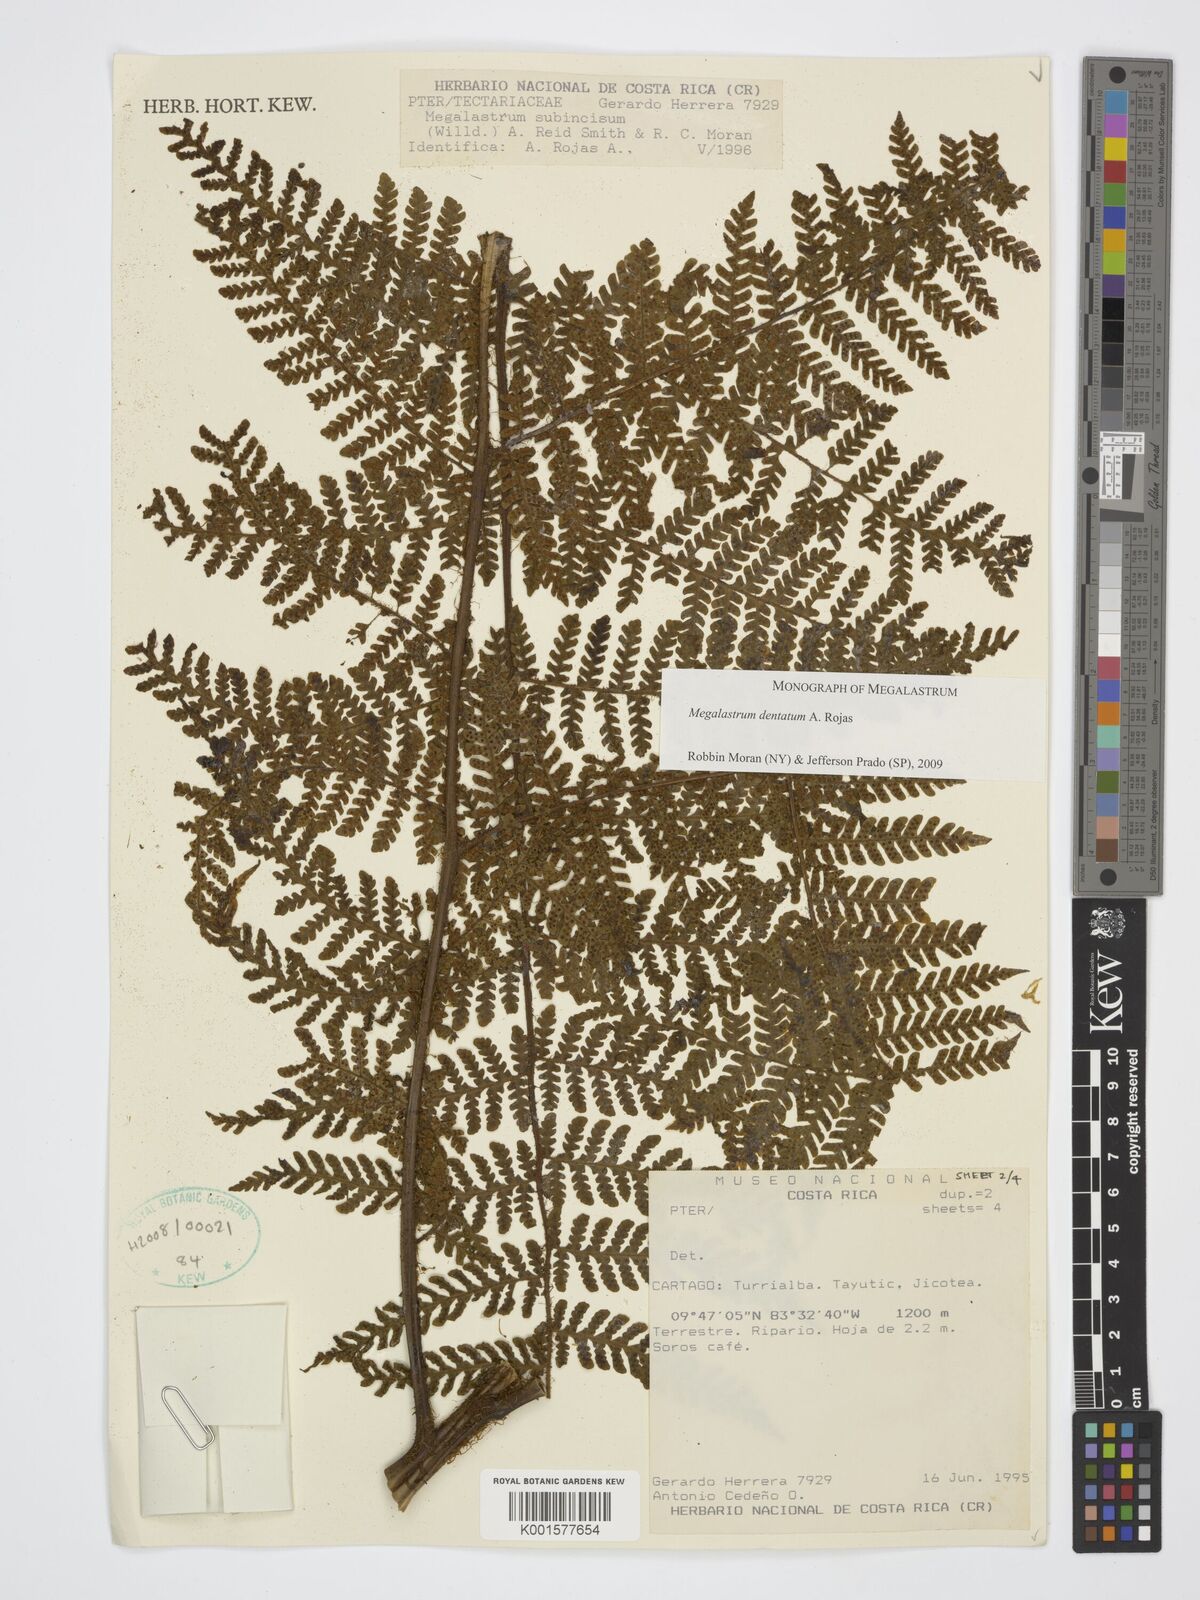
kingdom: Plantae
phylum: Tracheophyta
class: Polypodiopsida
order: Polypodiales
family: Dryopteridaceae
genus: Megalastrum
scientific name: Megalastrum dentatum
